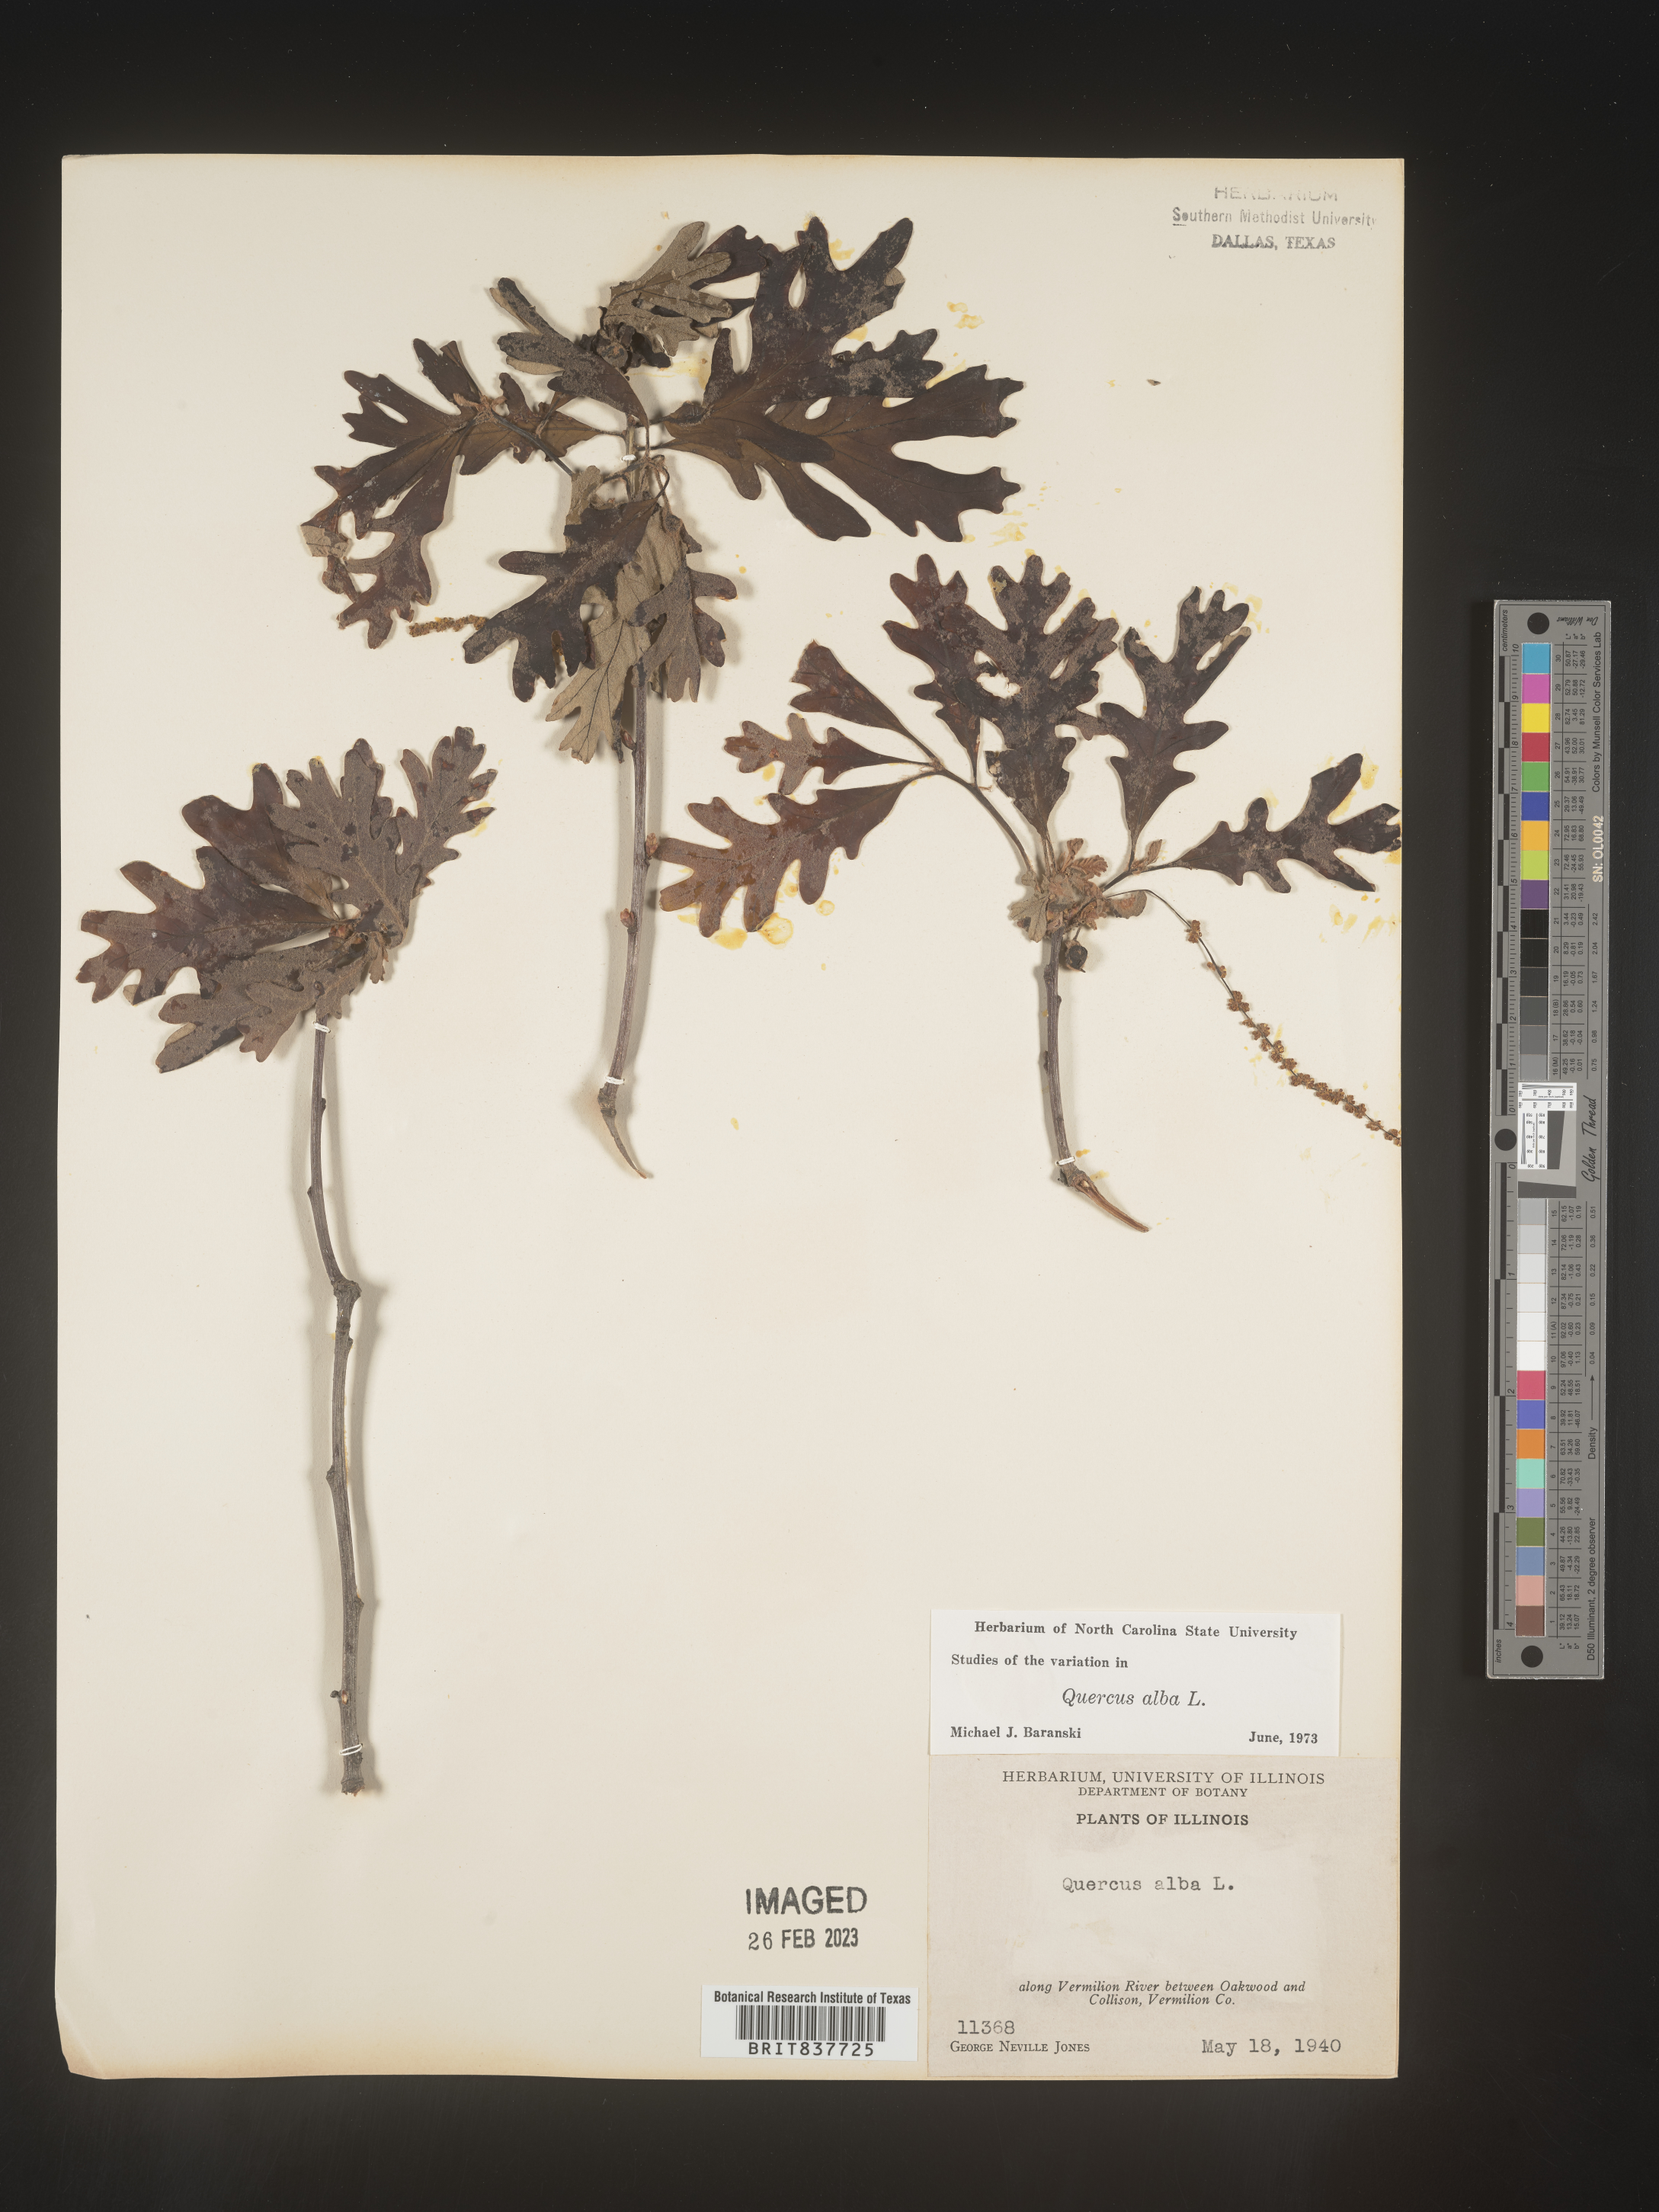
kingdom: Plantae
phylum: Tracheophyta
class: Magnoliopsida
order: Fagales
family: Fagaceae
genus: Quercus
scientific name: Quercus alba
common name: White oak
